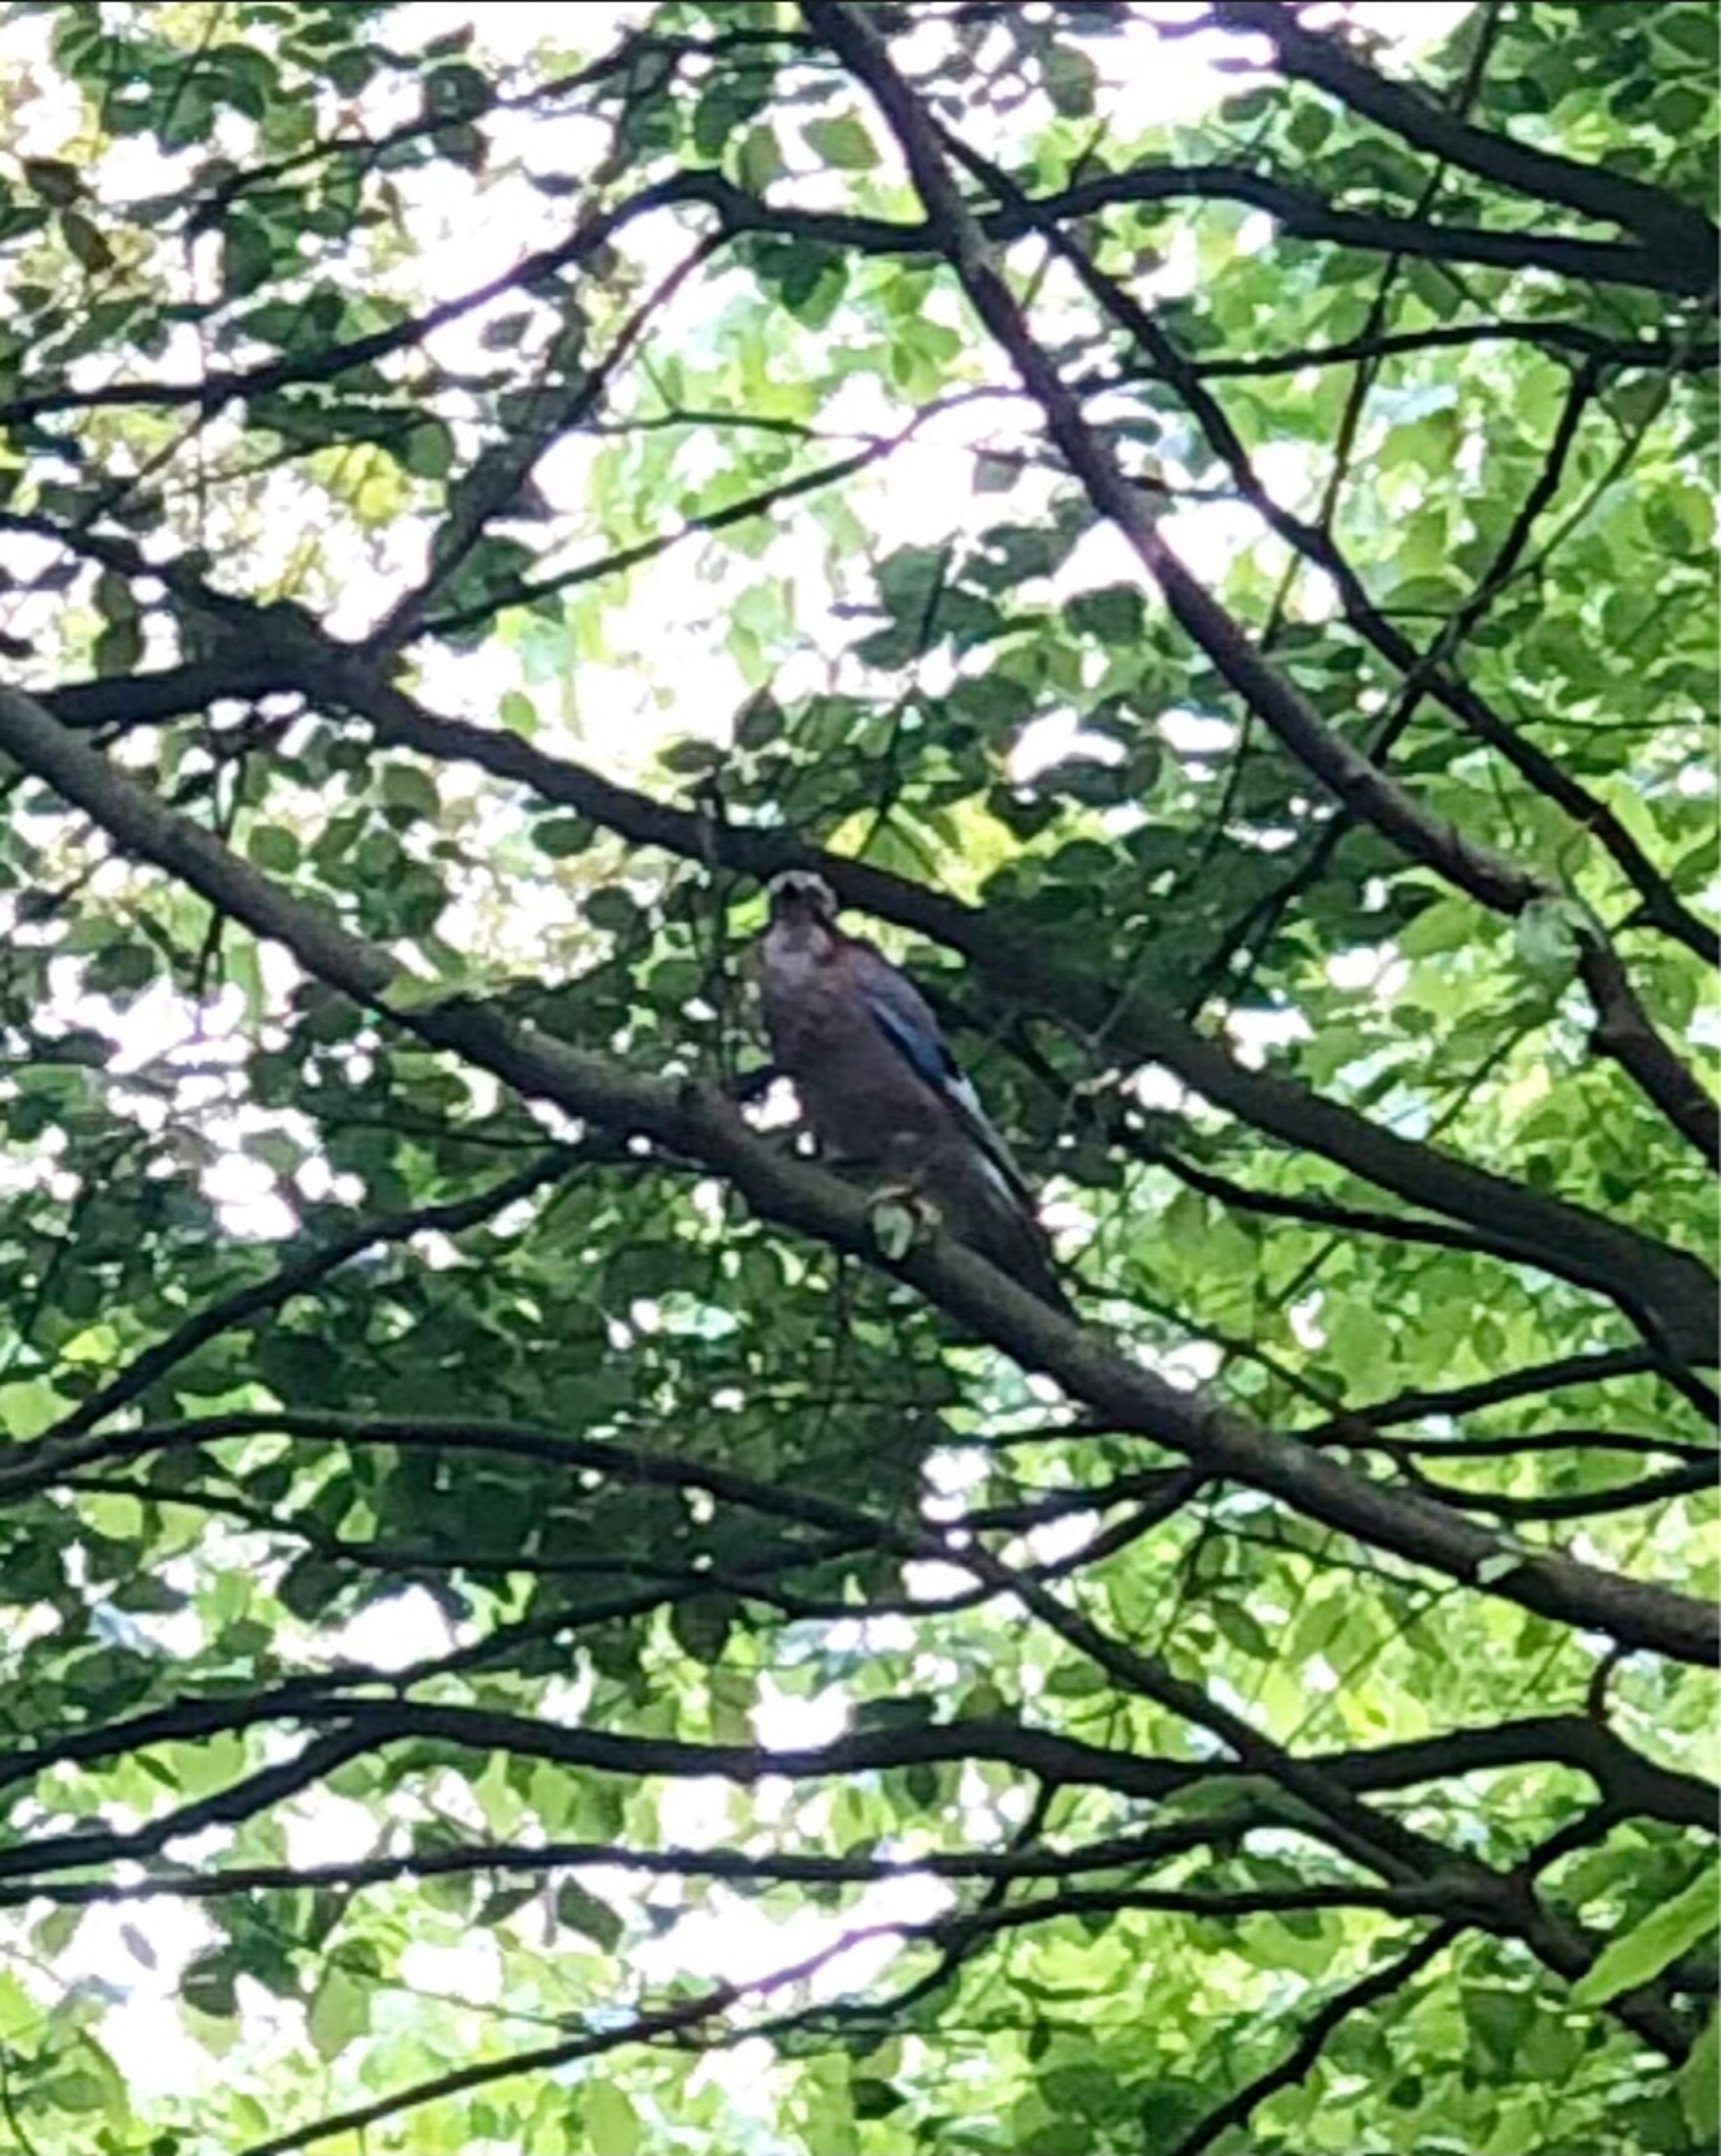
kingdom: Animalia
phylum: Chordata
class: Aves
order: Passeriformes
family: Corvidae
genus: Garrulus
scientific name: Garrulus glandarius
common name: Skovskade
